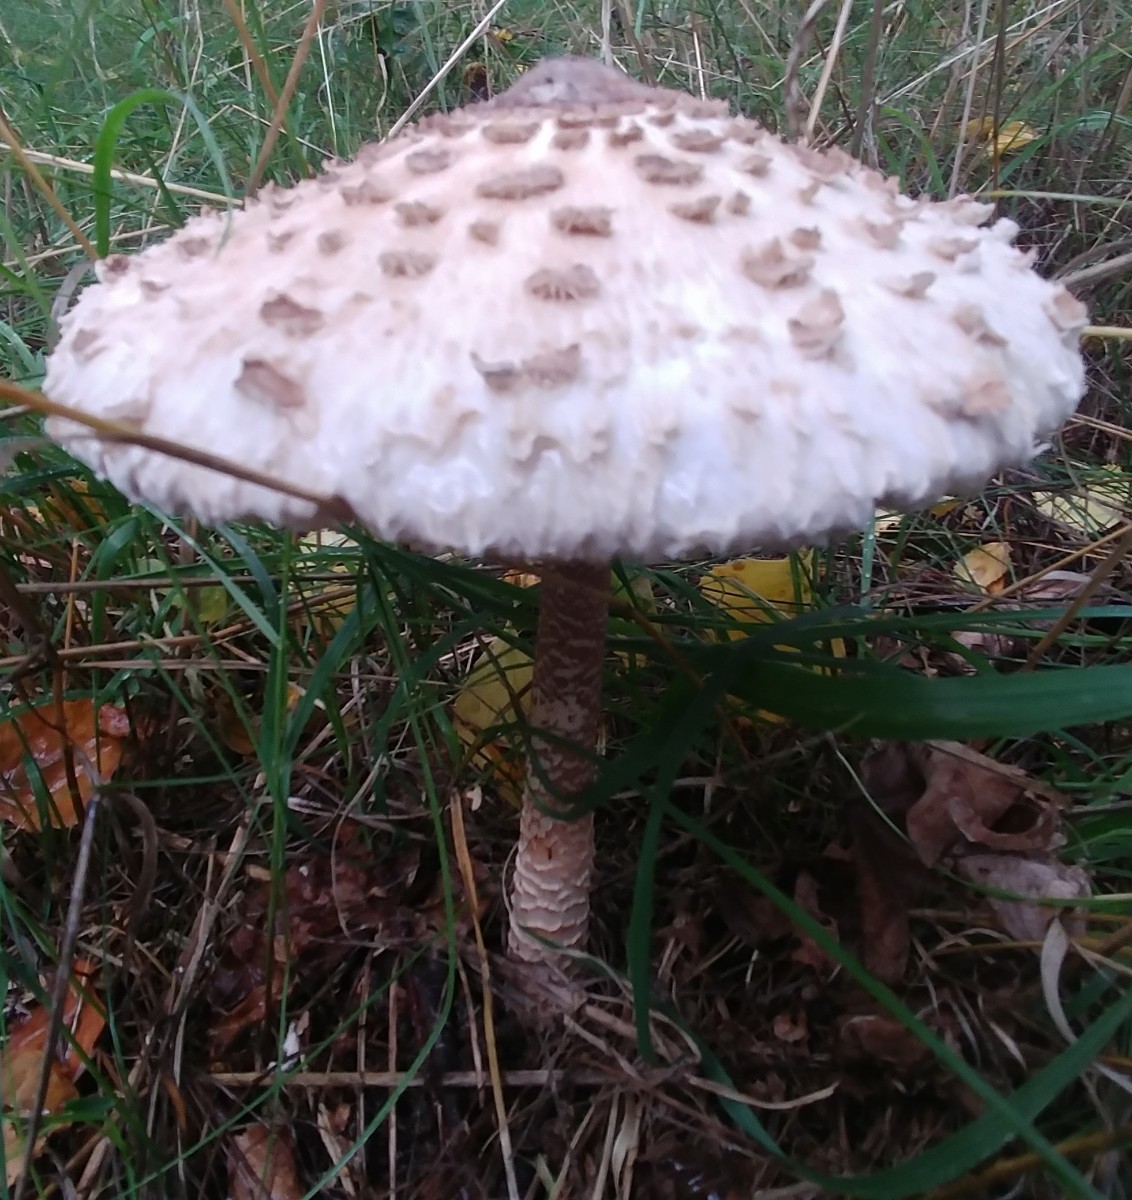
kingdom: Fungi
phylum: Basidiomycota
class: Agaricomycetes
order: Agaricales
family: Agaricaceae
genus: Macrolepiota
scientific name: Macrolepiota procera
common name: stor kæmpeparasolhat
